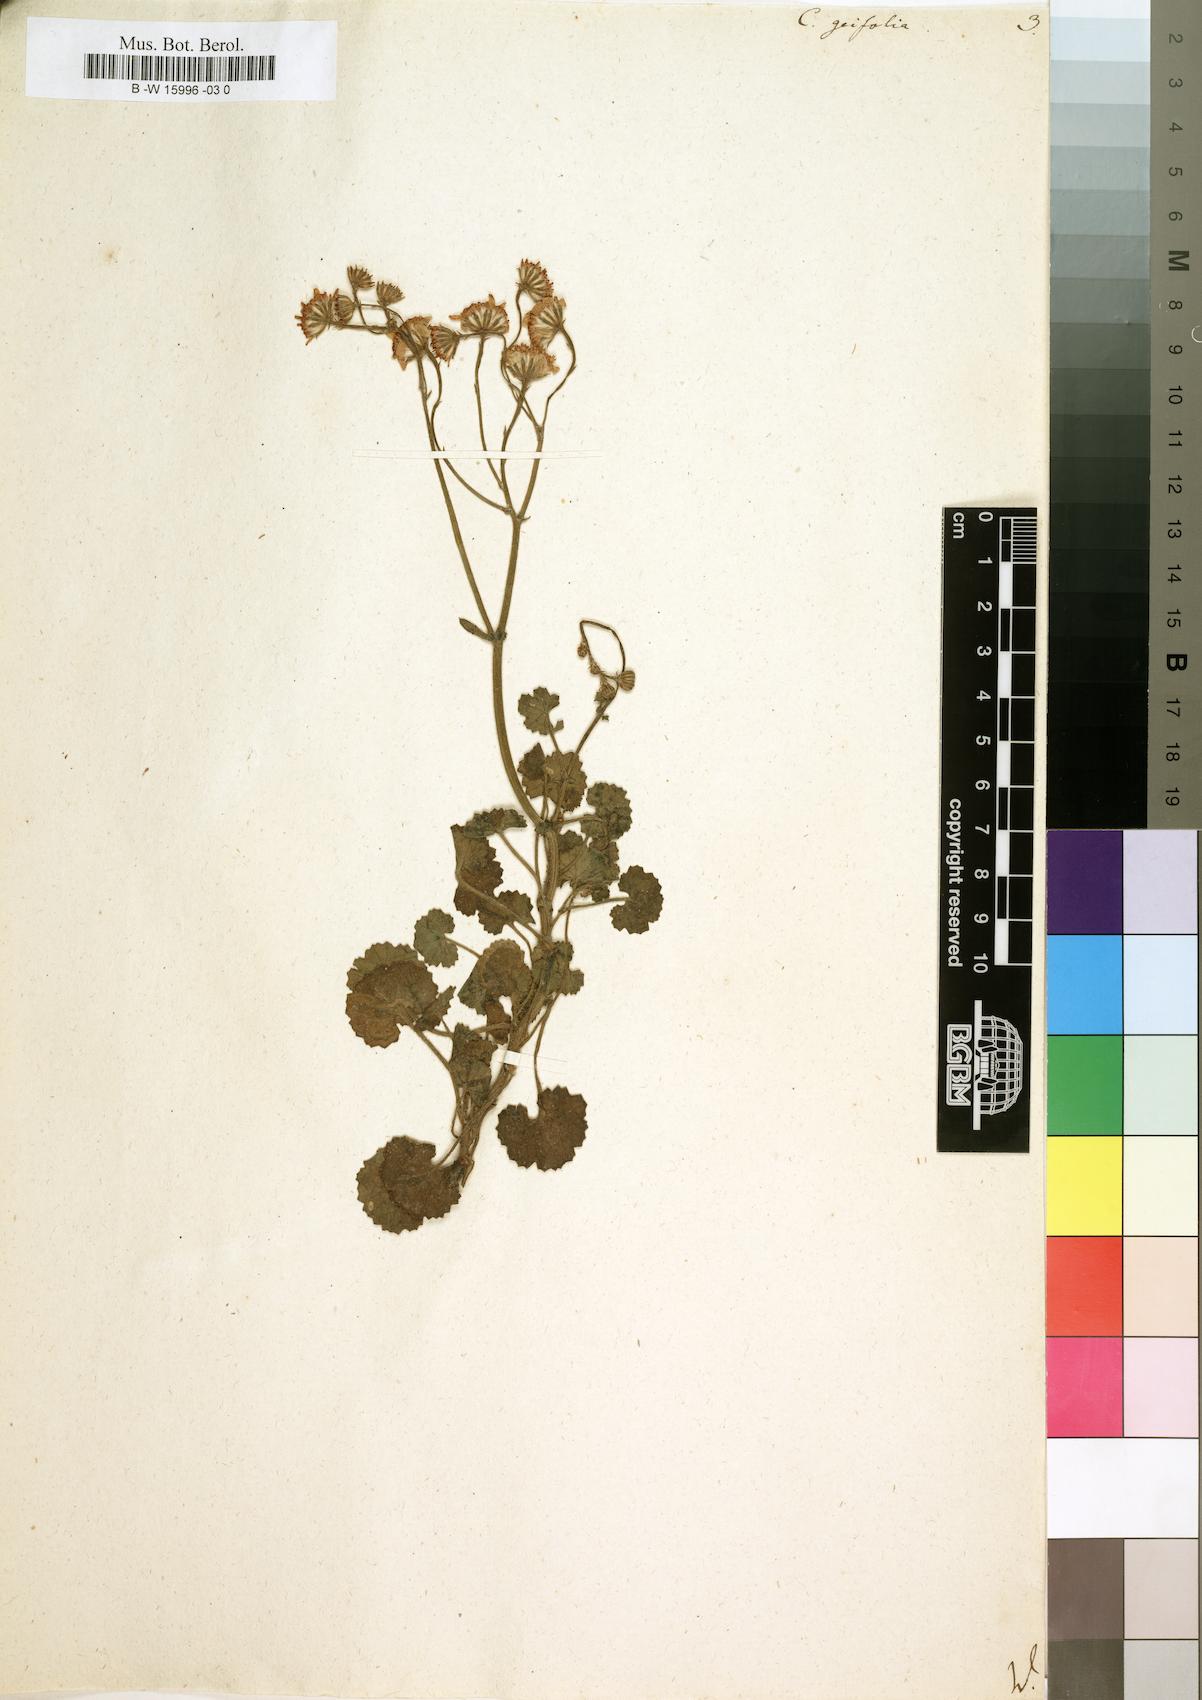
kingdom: Plantae
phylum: Tracheophyta
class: Magnoliopsida
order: Asterales
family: Asteraceae
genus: Cineraria
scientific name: Cineraria geifolia
